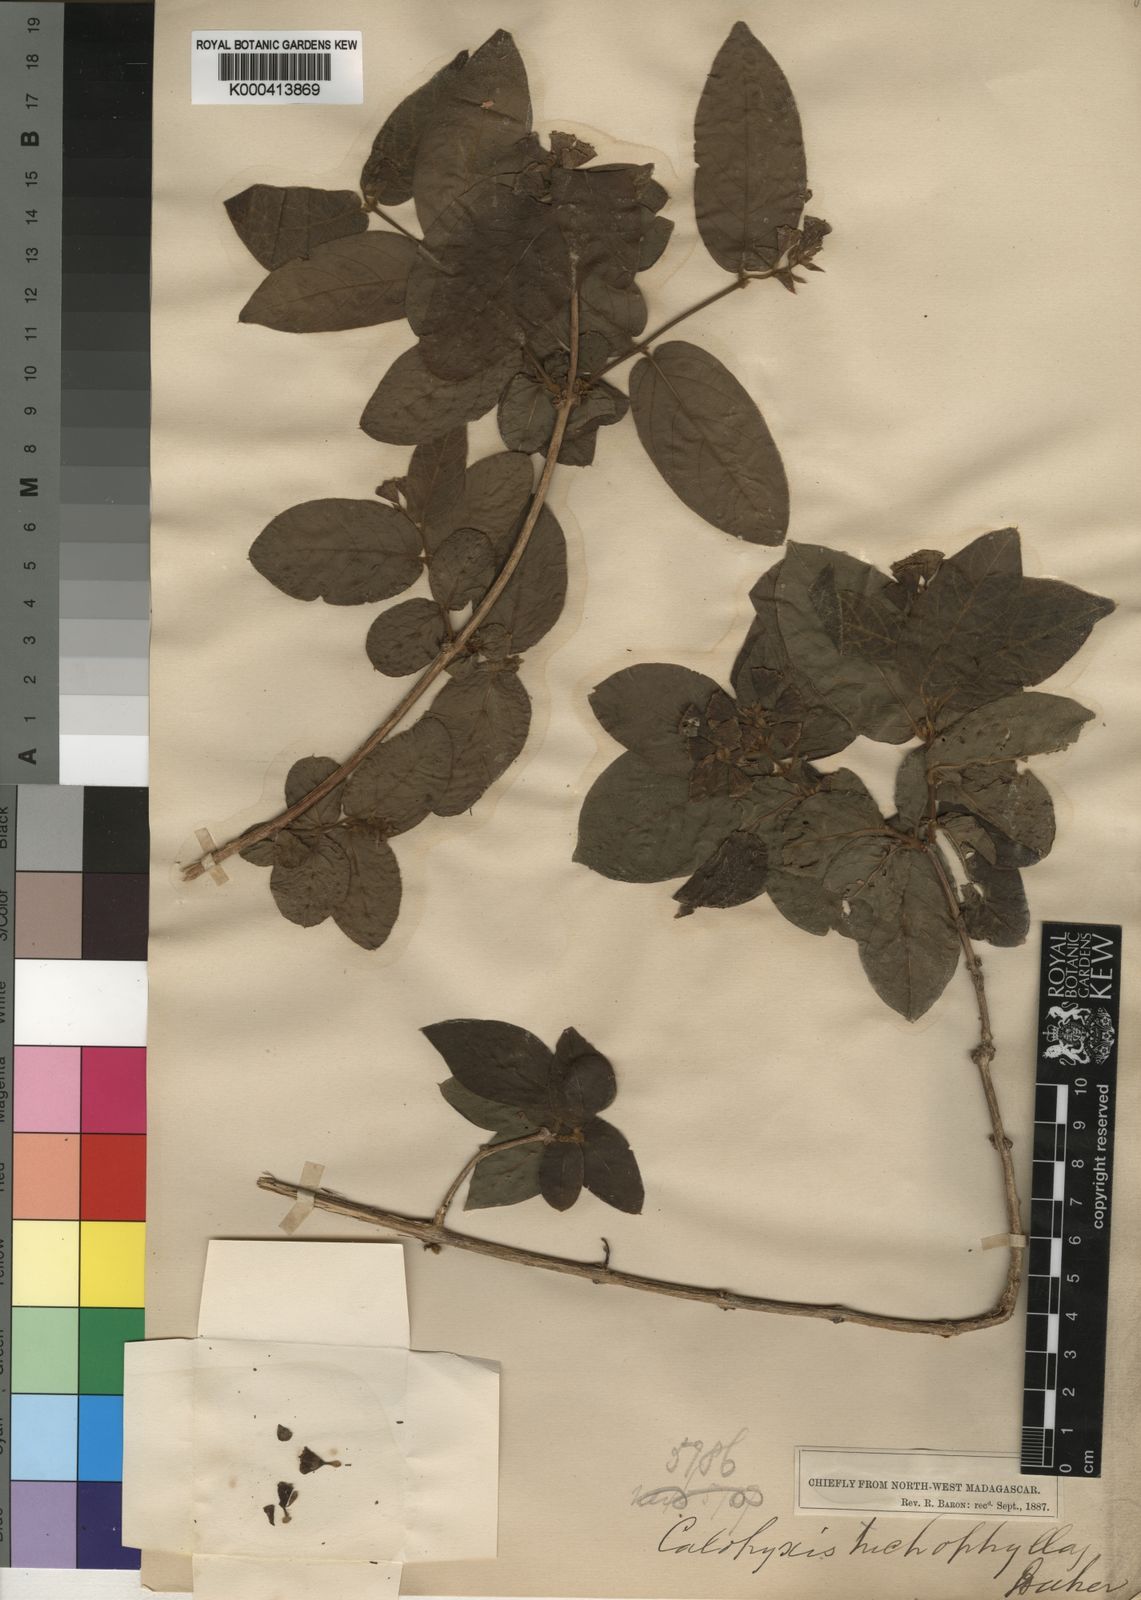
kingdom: Plantae
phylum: Tracheophyta
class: Magnoliopsida
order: Myrtales
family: Combretaceae
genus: Combretum
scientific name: Combretum longicollum
